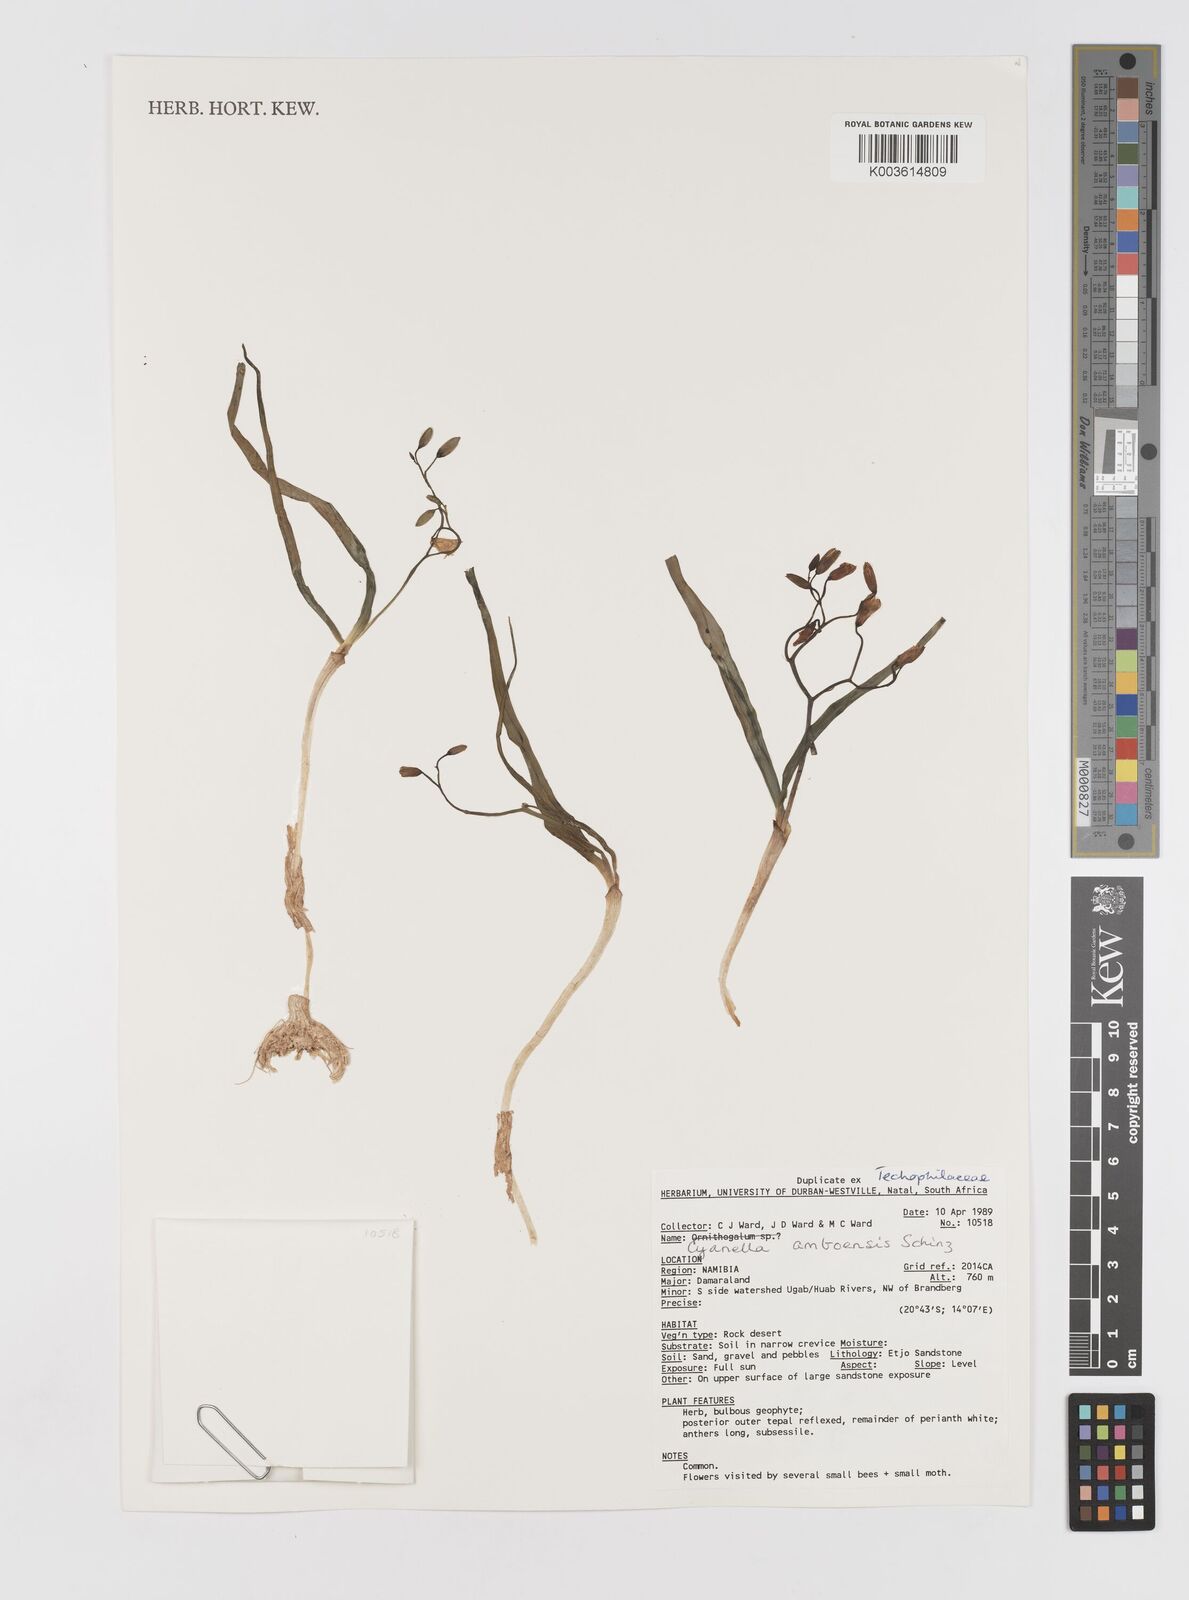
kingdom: Plantae
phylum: Tracheophyta
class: Liliopsida
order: Asparagales
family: Tecophilaeaceae
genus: Eremiolirion
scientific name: Eremiolirion amboense
